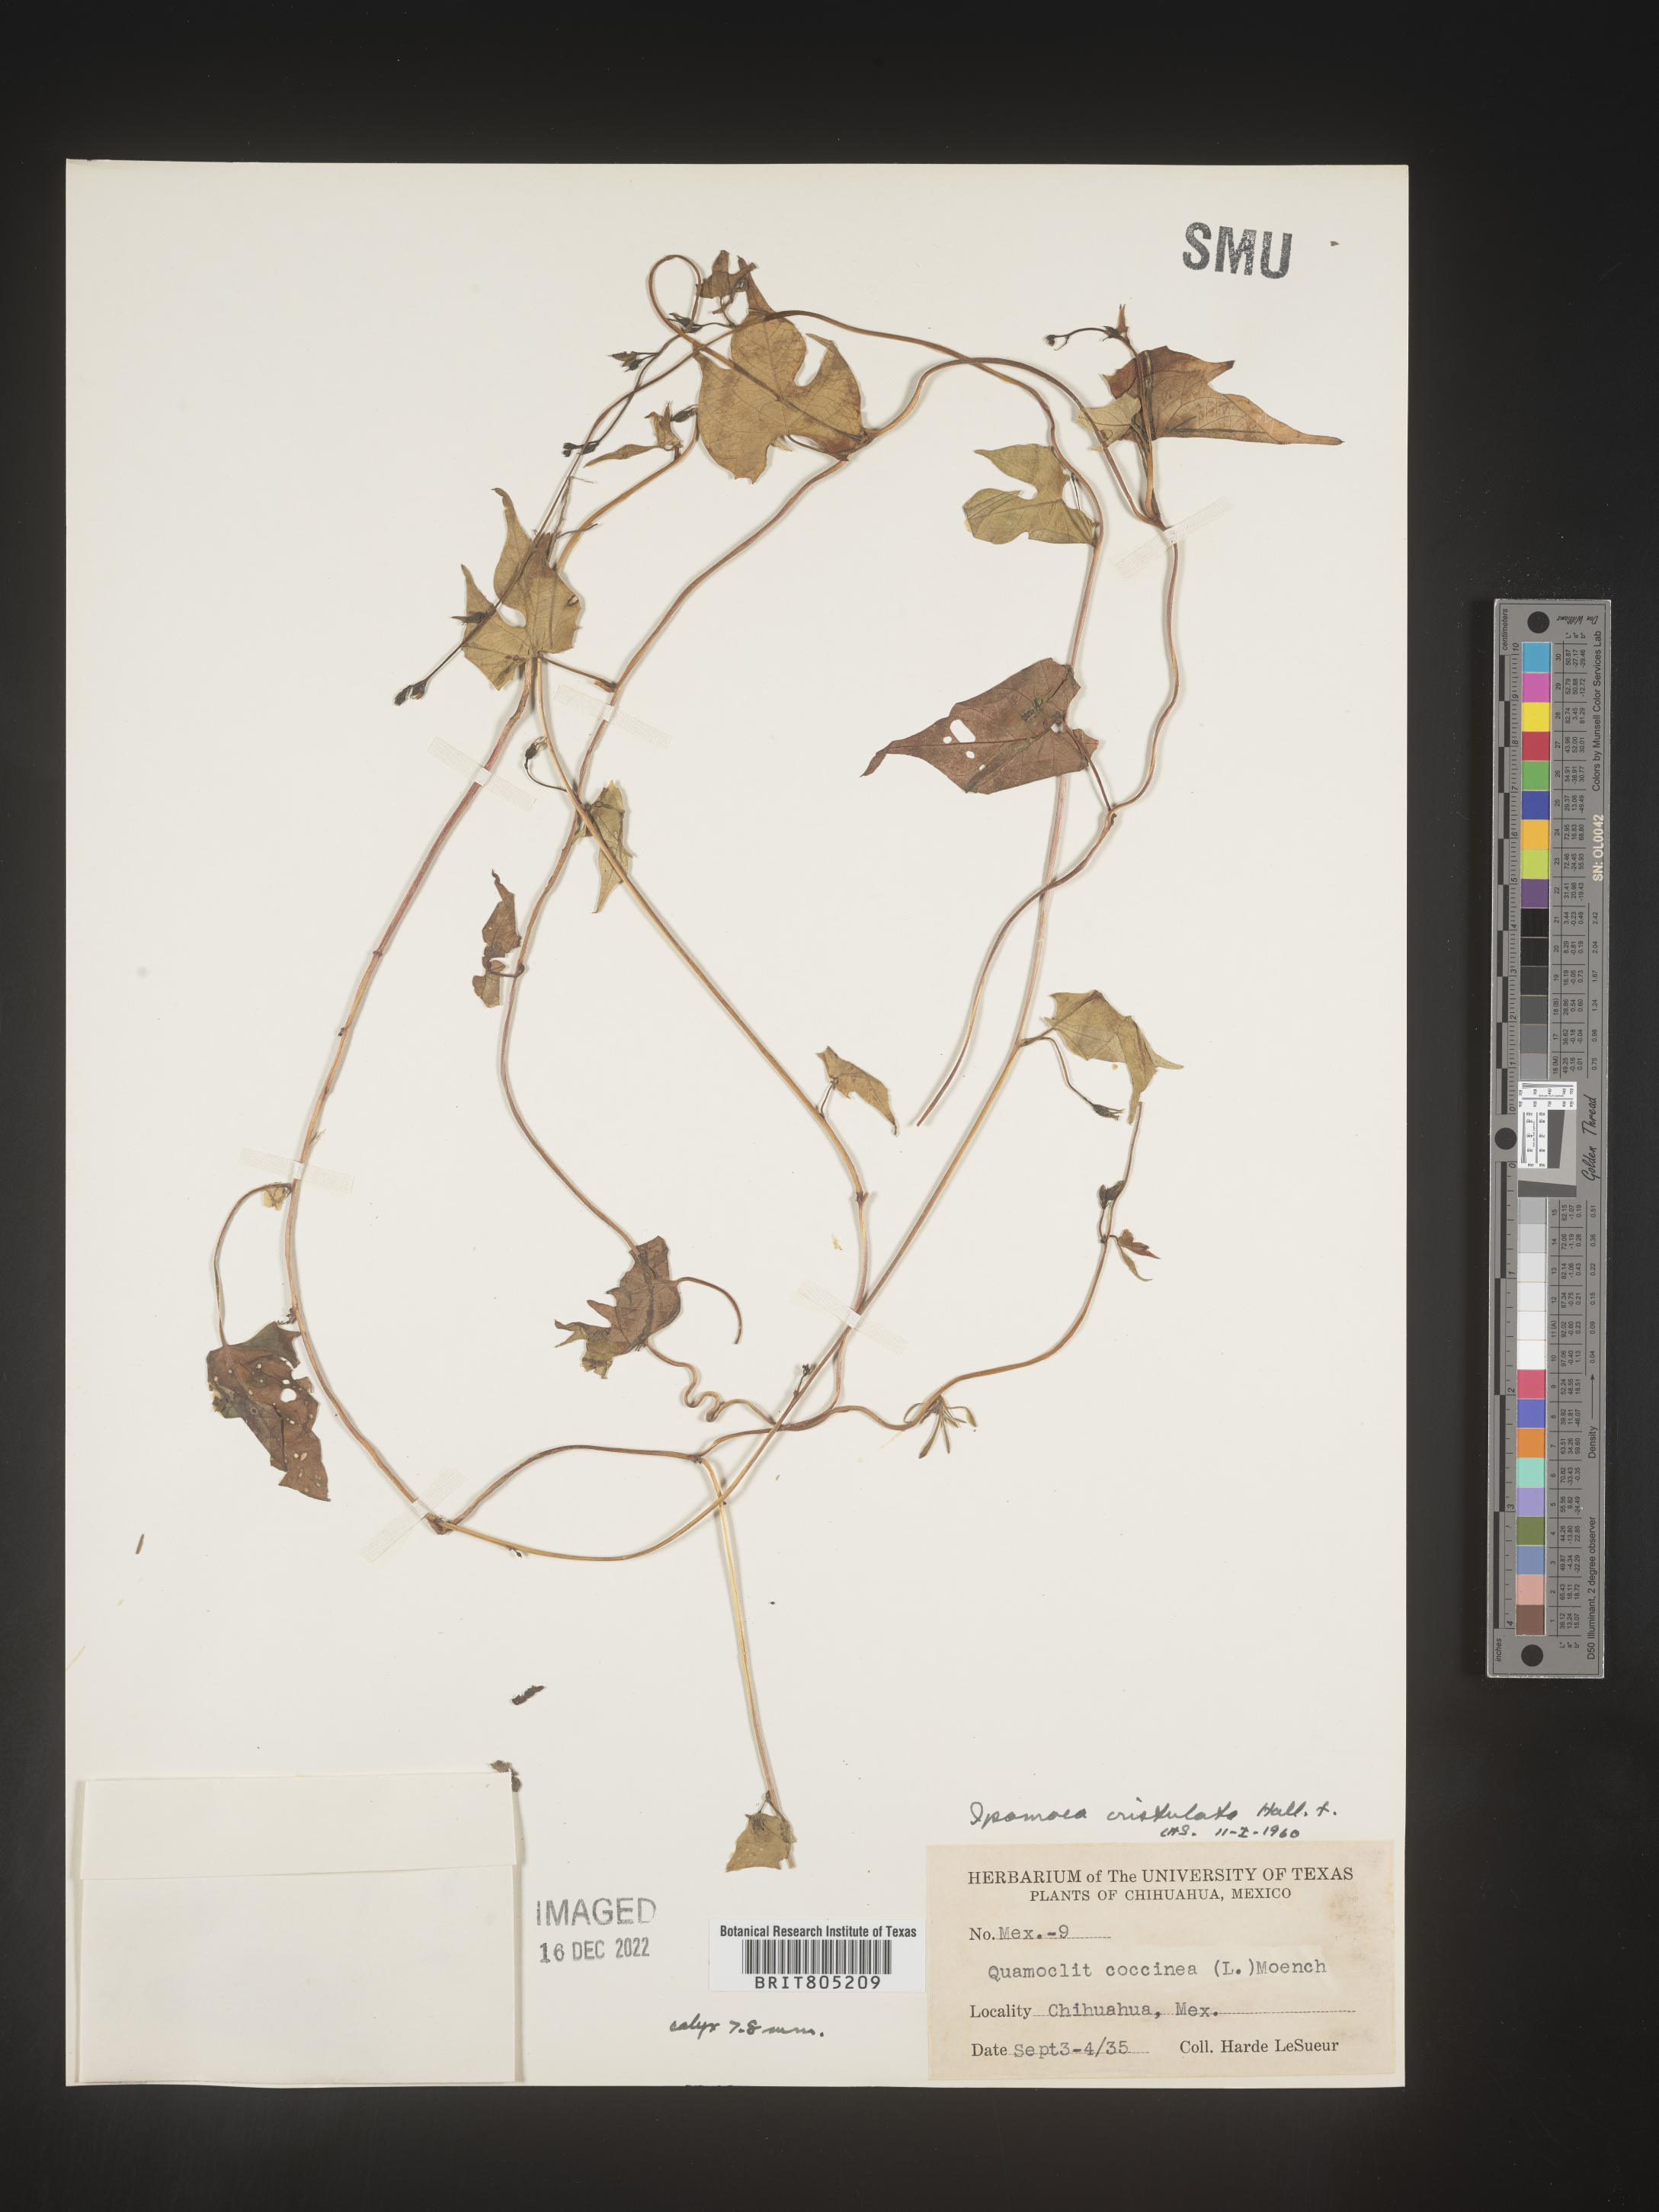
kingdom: Plantae
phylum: Tracheophyta
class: Magnoliopsida
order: Solanales
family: Convolvulaceae
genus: Ipomoea
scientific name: Ipomoea
